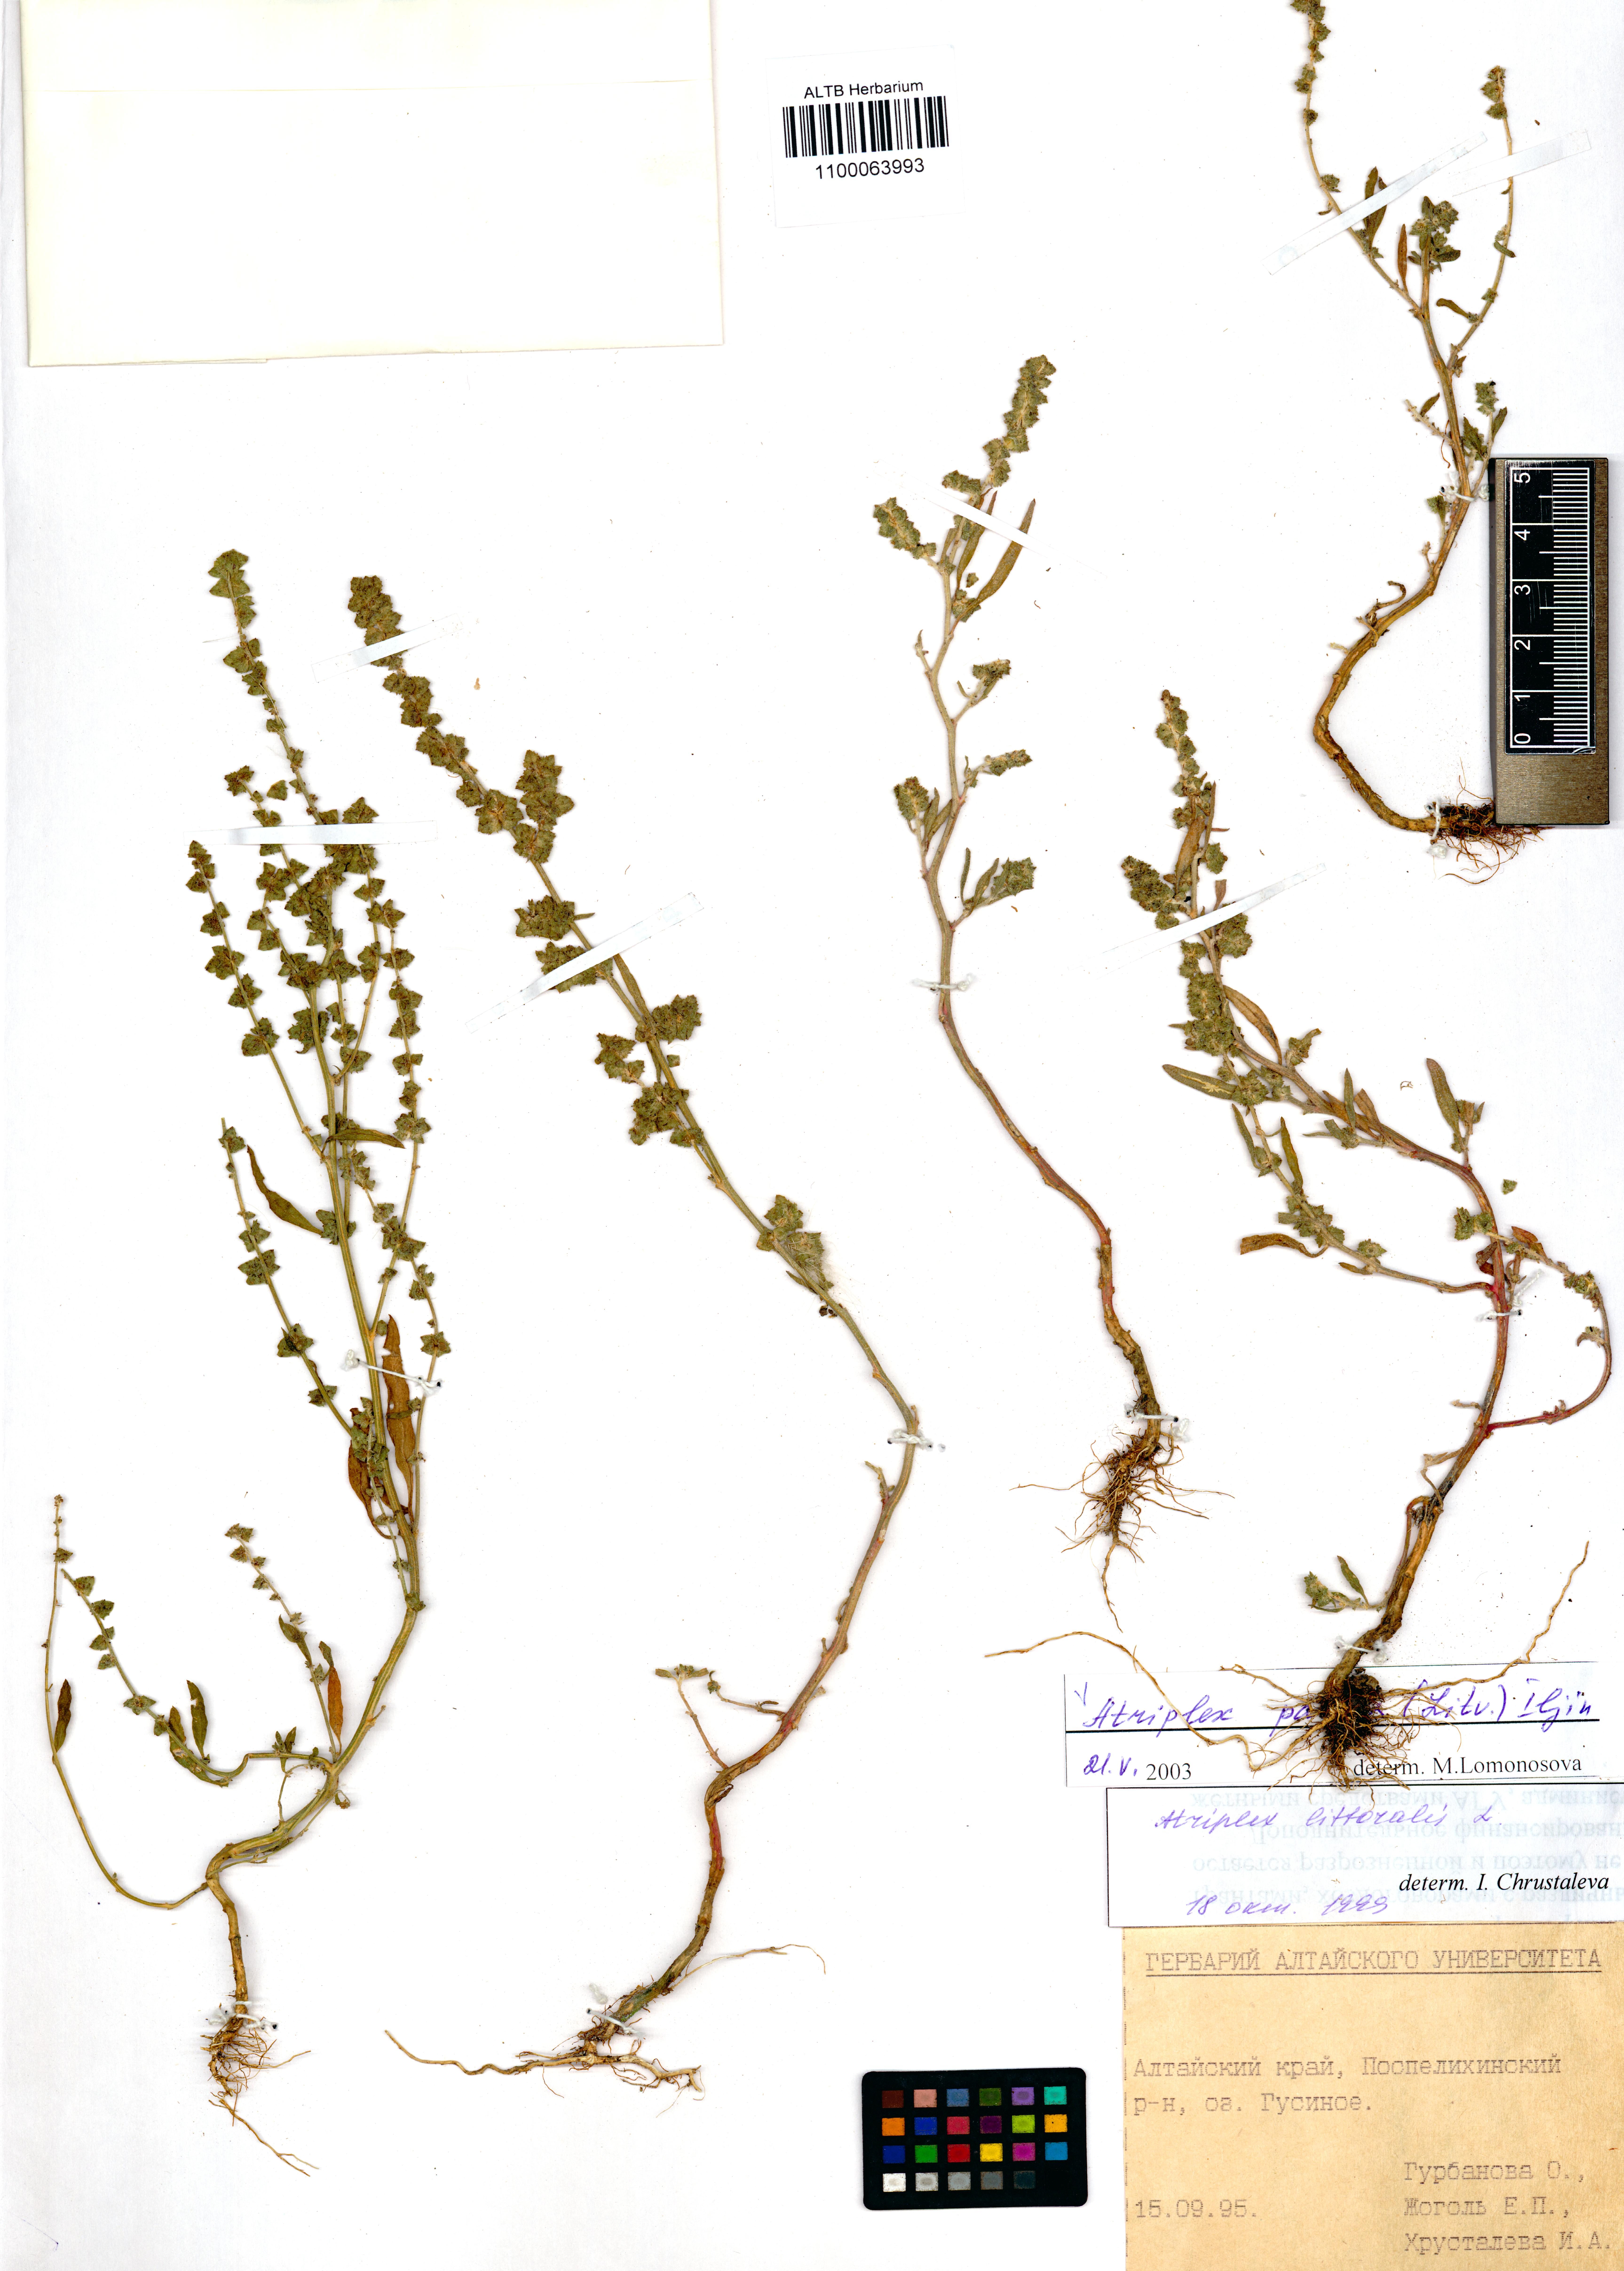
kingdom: Plantae
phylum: Tracheophyta
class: Magnoliopsida
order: Caryophyllales
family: Amaranthaceae
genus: Atriplex
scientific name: Atriplex patens
